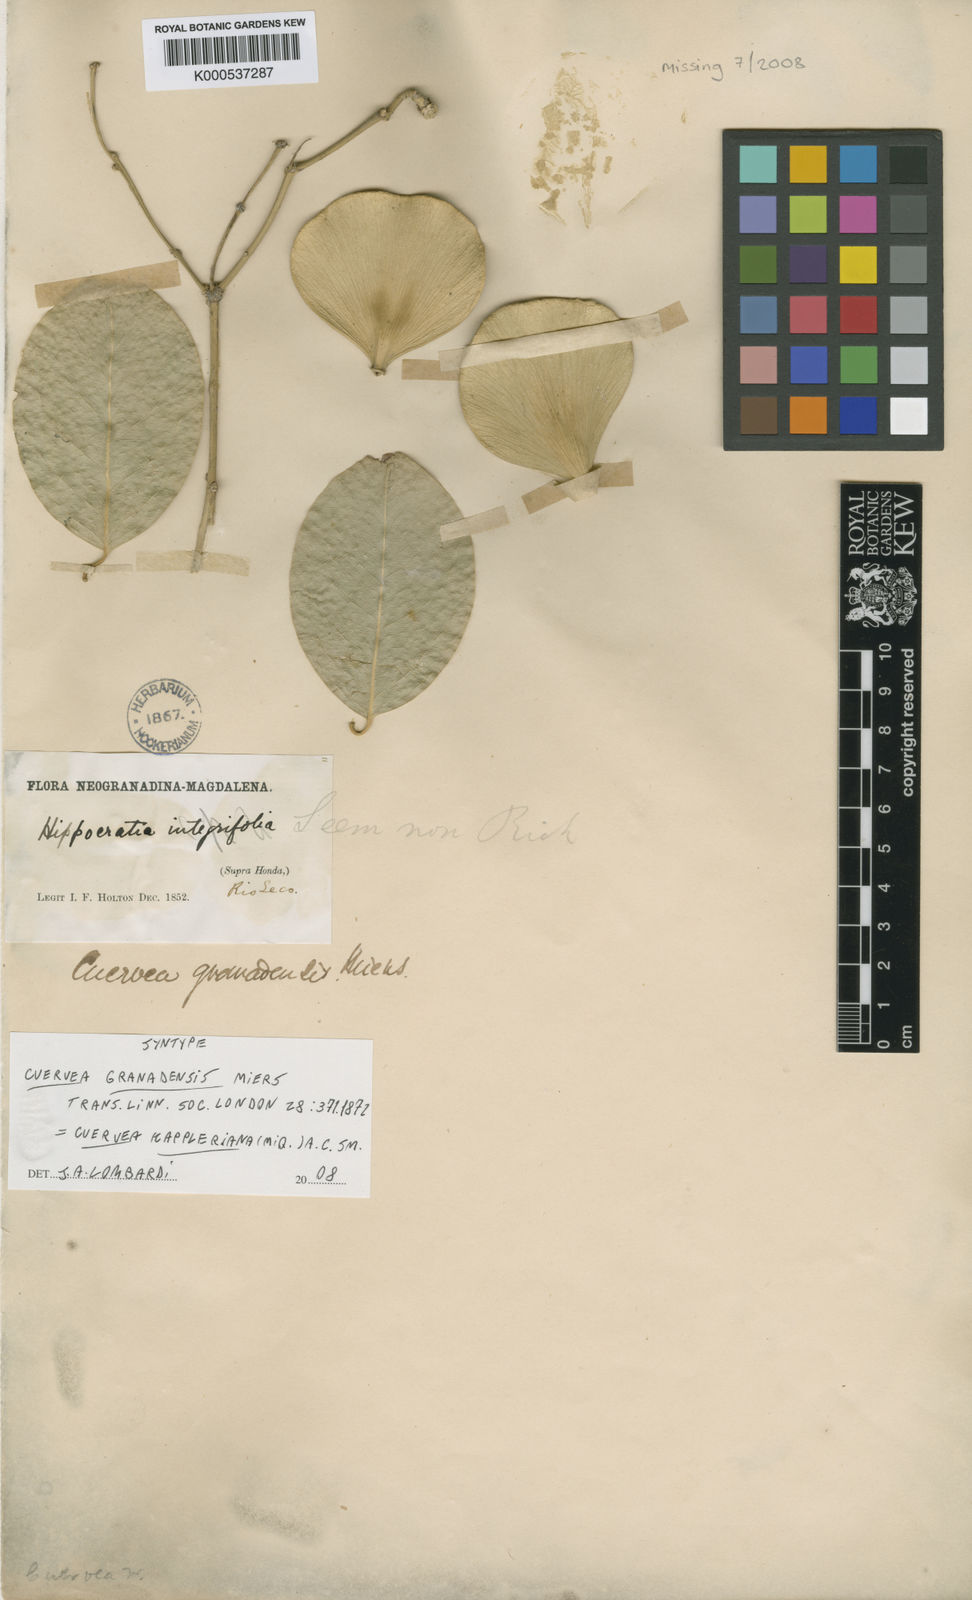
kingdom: Plantae
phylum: Tracheophyta
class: Magnoliopsida
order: Celastrales
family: Celastraceae
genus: Cuervea
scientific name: Cuervea kappleriana
